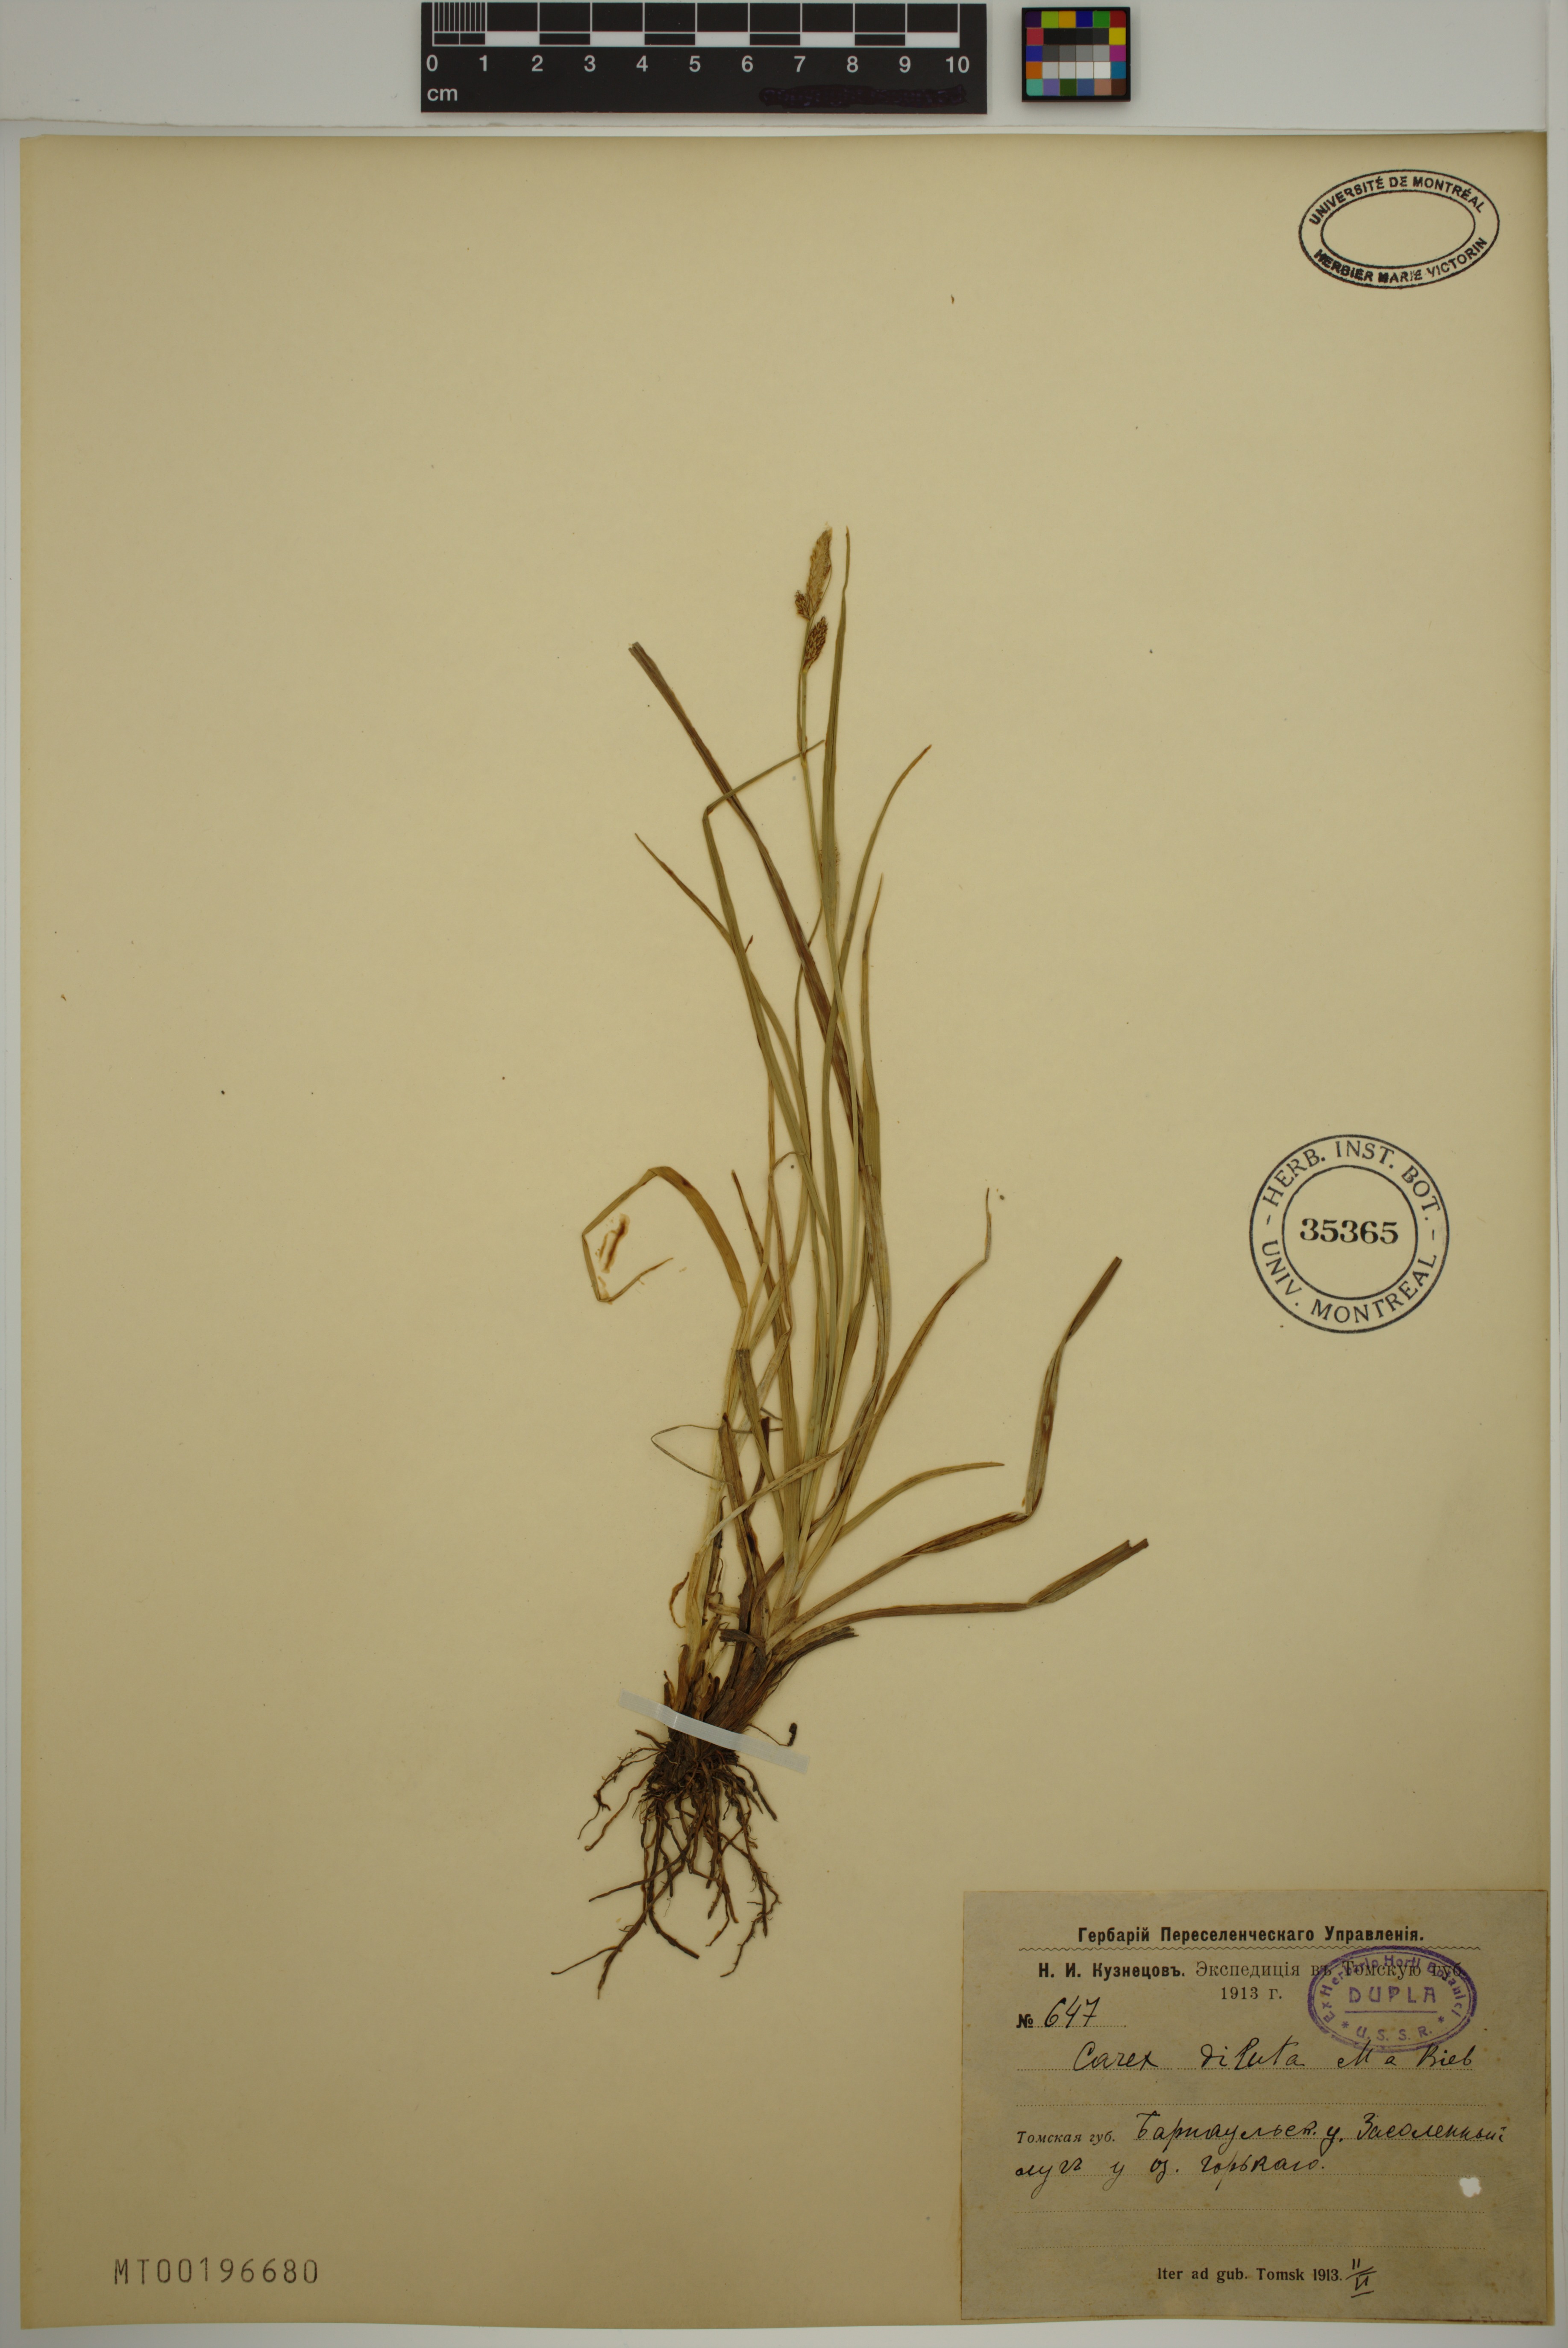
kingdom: Plantae
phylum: Tracheophyta
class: Liliopsida
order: Poales
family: Cyperaceae
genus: Carex
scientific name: Carex diluta
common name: Sedge
